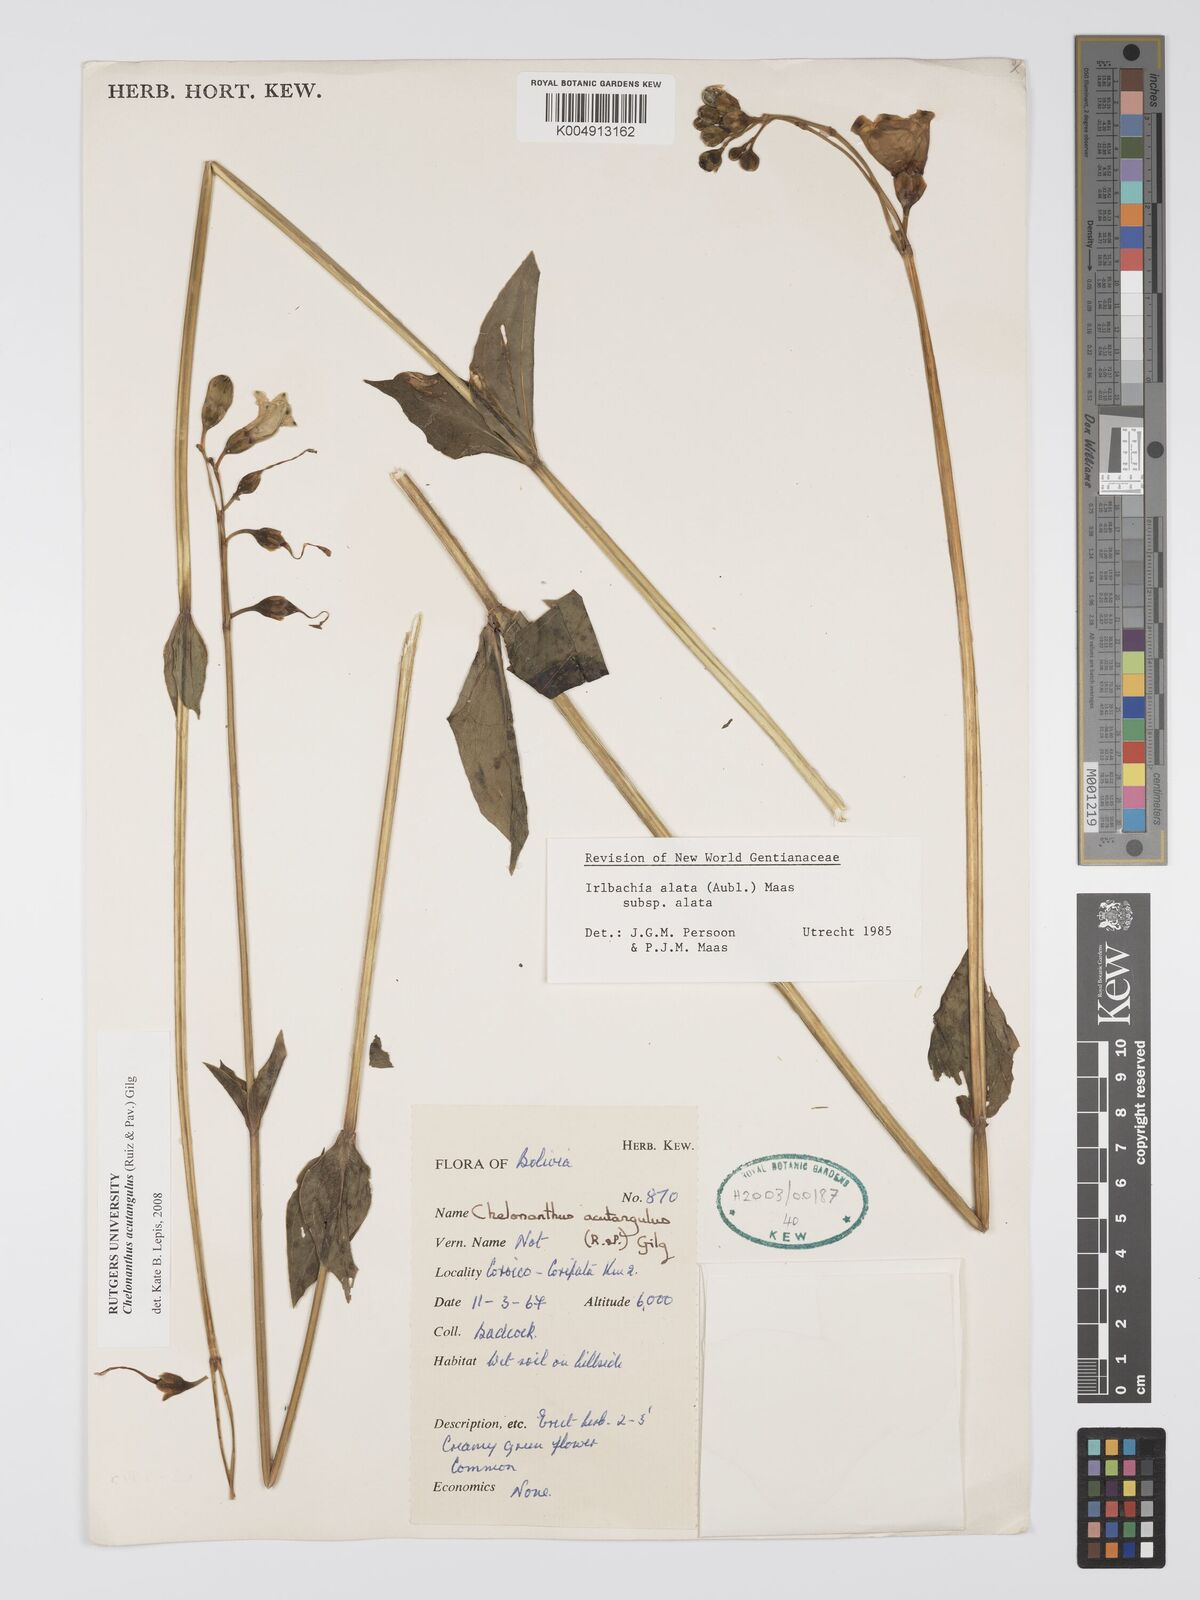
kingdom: Plantae
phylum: Tracheophyta
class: Magnoliopsida
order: Gentianales
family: Gentianaceae
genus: Chelonanthus
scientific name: Chelonanthus alatus
